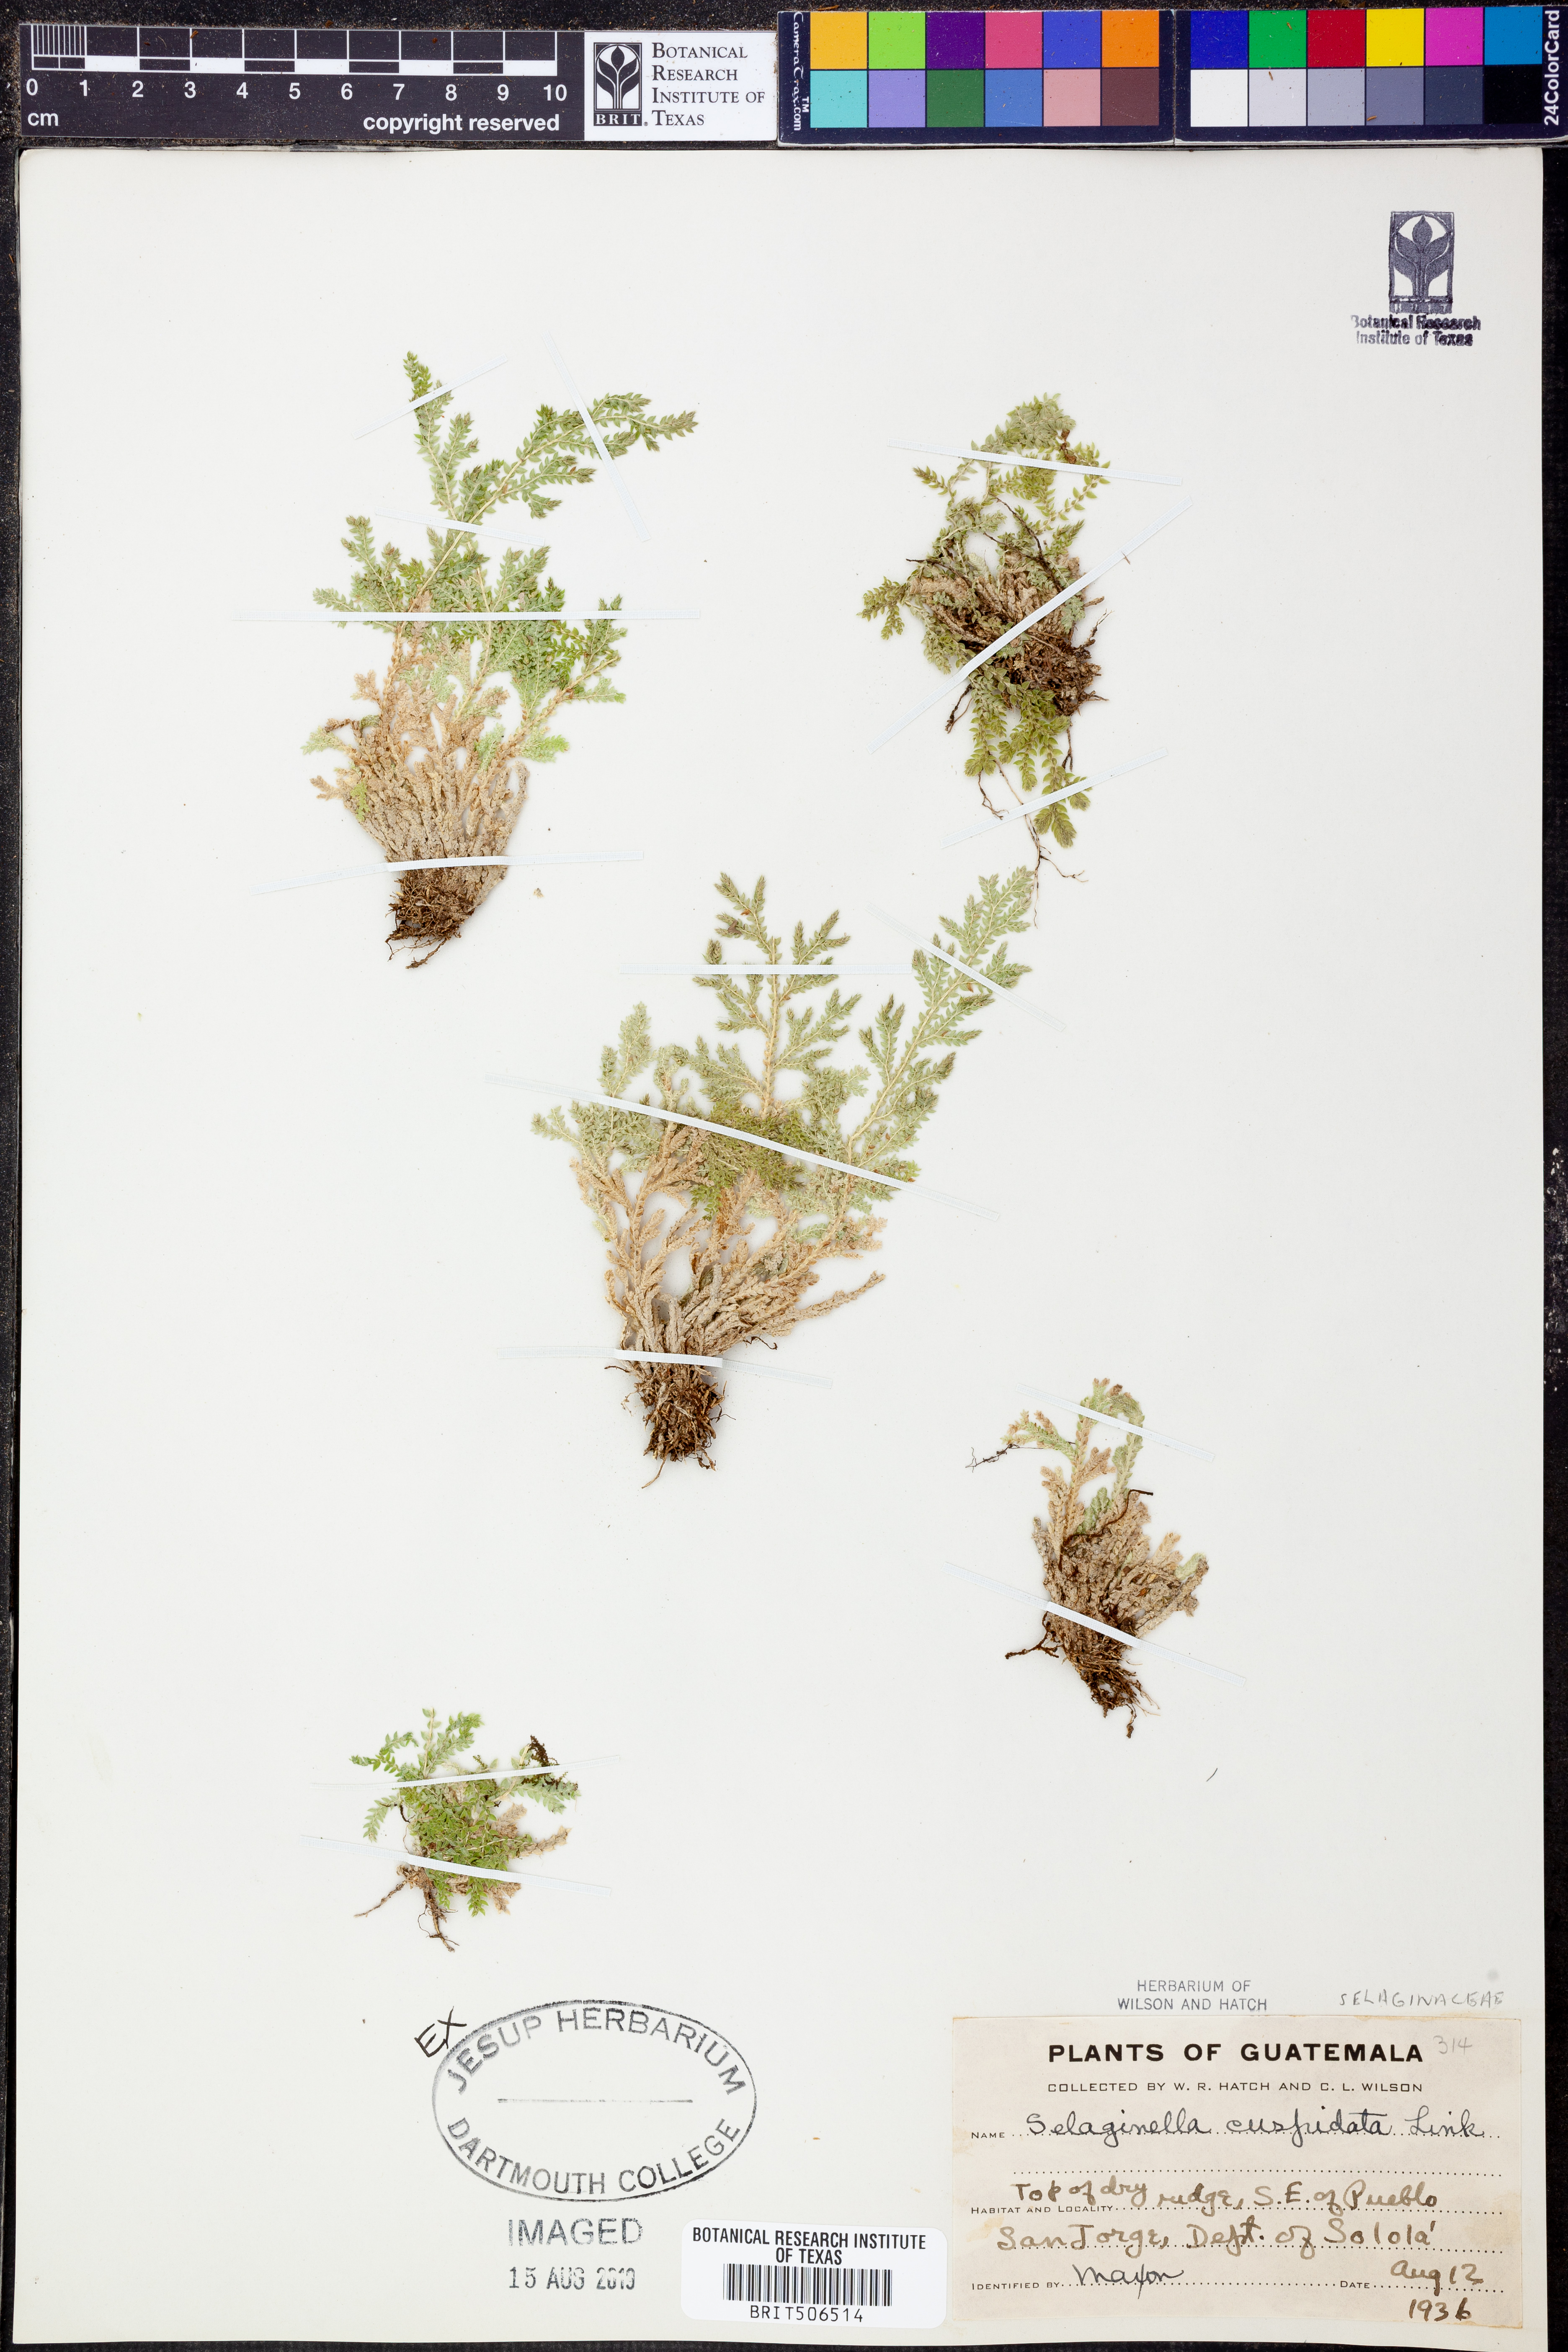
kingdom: Plantae
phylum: Tracheophyta
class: Lycopodiopsida
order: Selaginellales
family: Selaginellaceae
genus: Selaginella
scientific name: Selaginella pallescens
